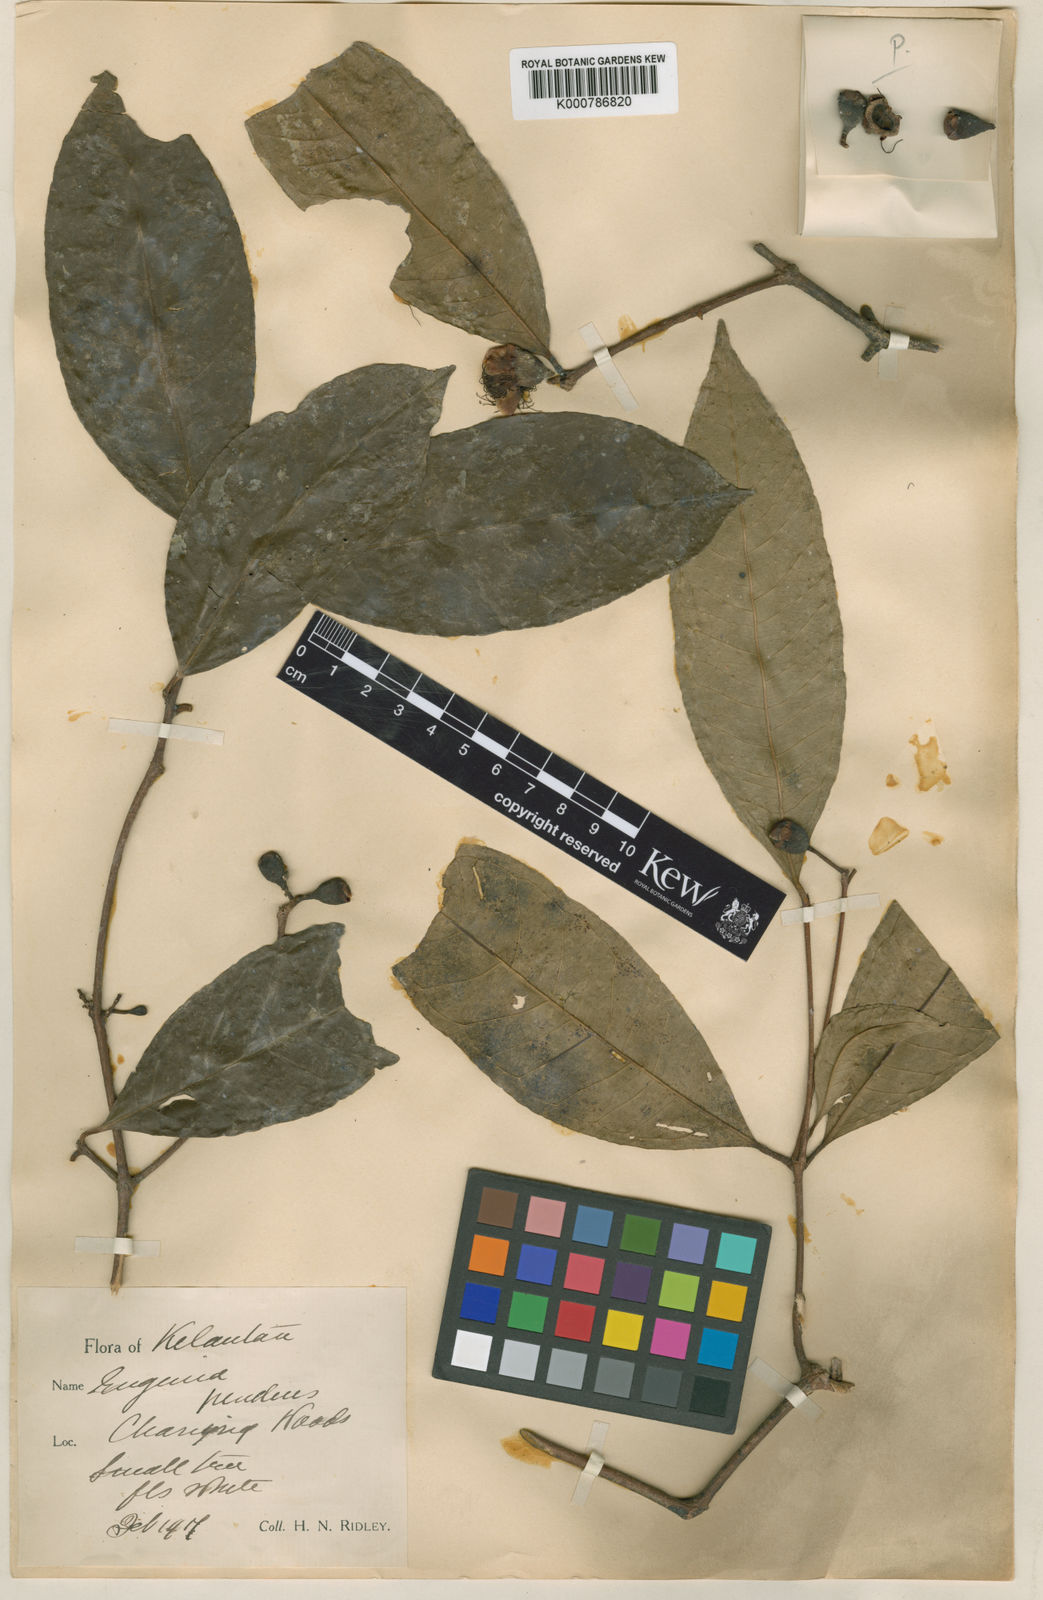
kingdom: Plantae
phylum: Tracheophyta
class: Magnoliopsida
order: Myrtales
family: Myrtaceae
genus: Syzygium
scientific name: Syzygium pendens
